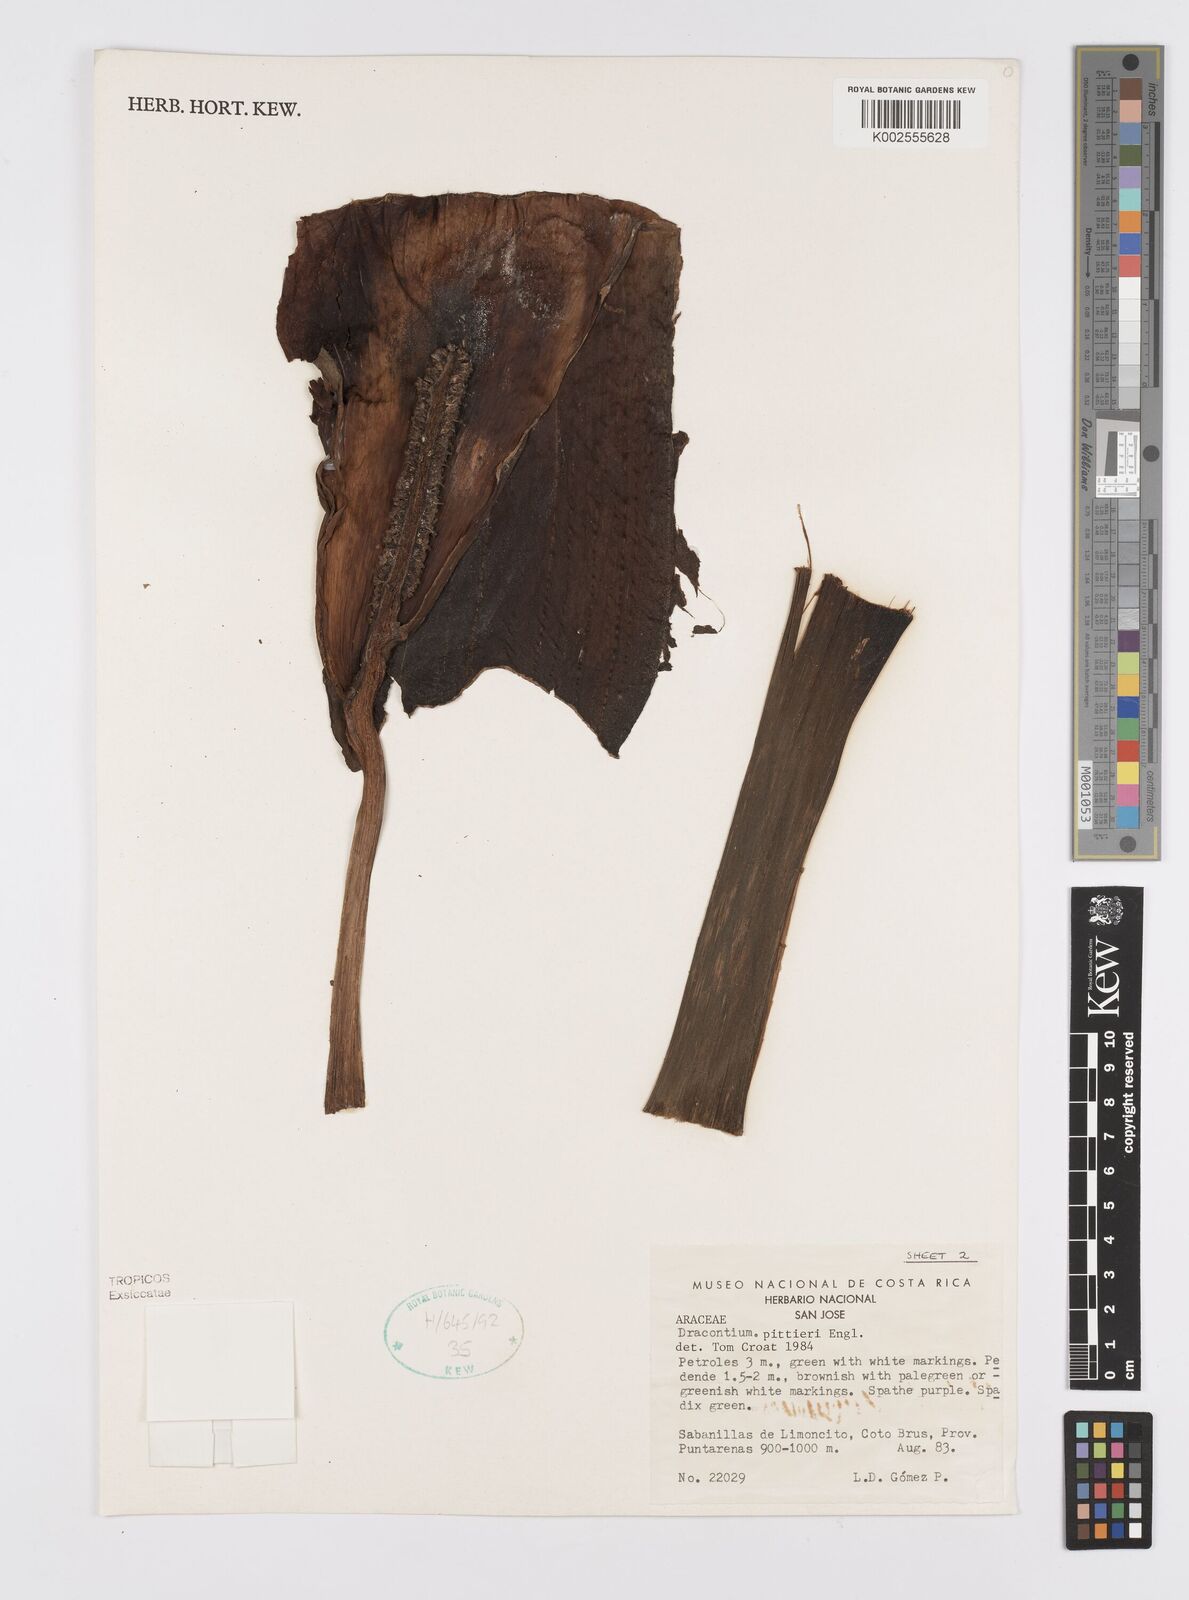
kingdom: Plantae
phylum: Tracheophyta
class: Liliopsida
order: Alismatales
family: Araceae
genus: Dracontium
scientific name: Dracontium pittieri
